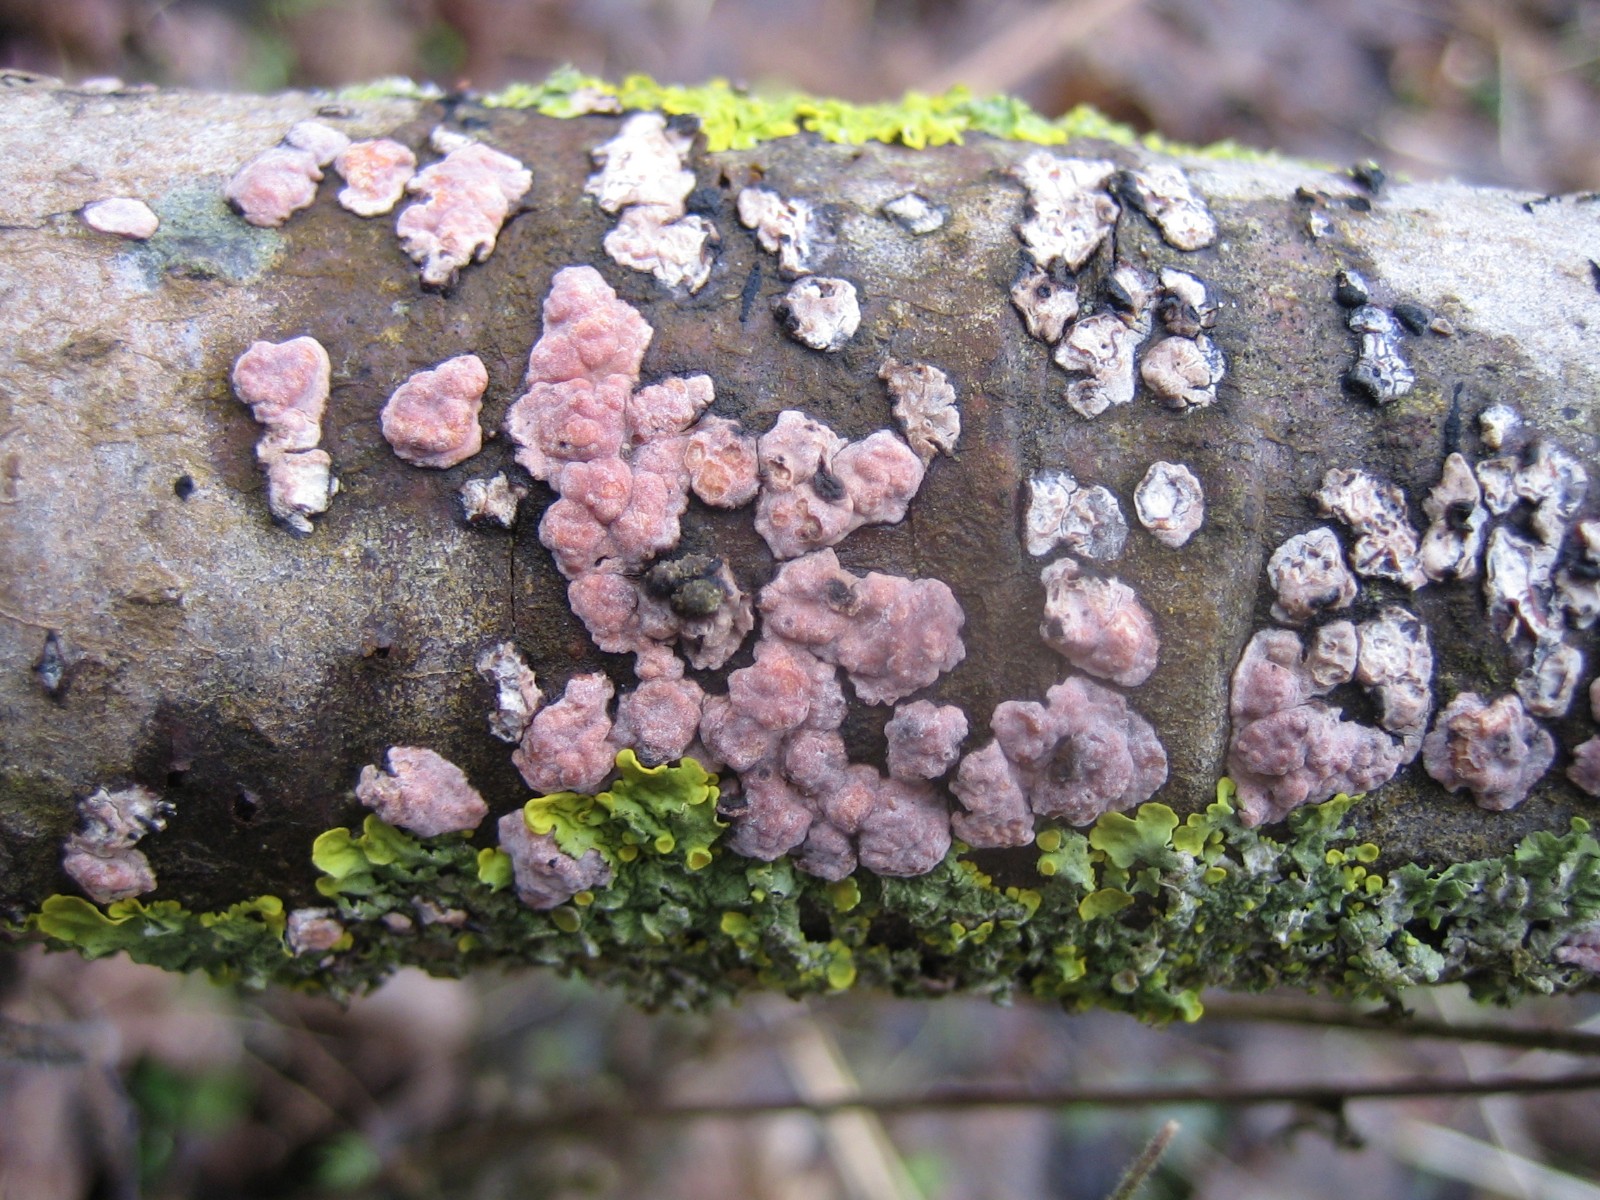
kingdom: Fungi
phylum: Basidiomycota
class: Agaricomycetes
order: Russulales
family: Peniophoraceae
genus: Peniophora
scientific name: Peniophora polygonia
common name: polygon-voksskind
